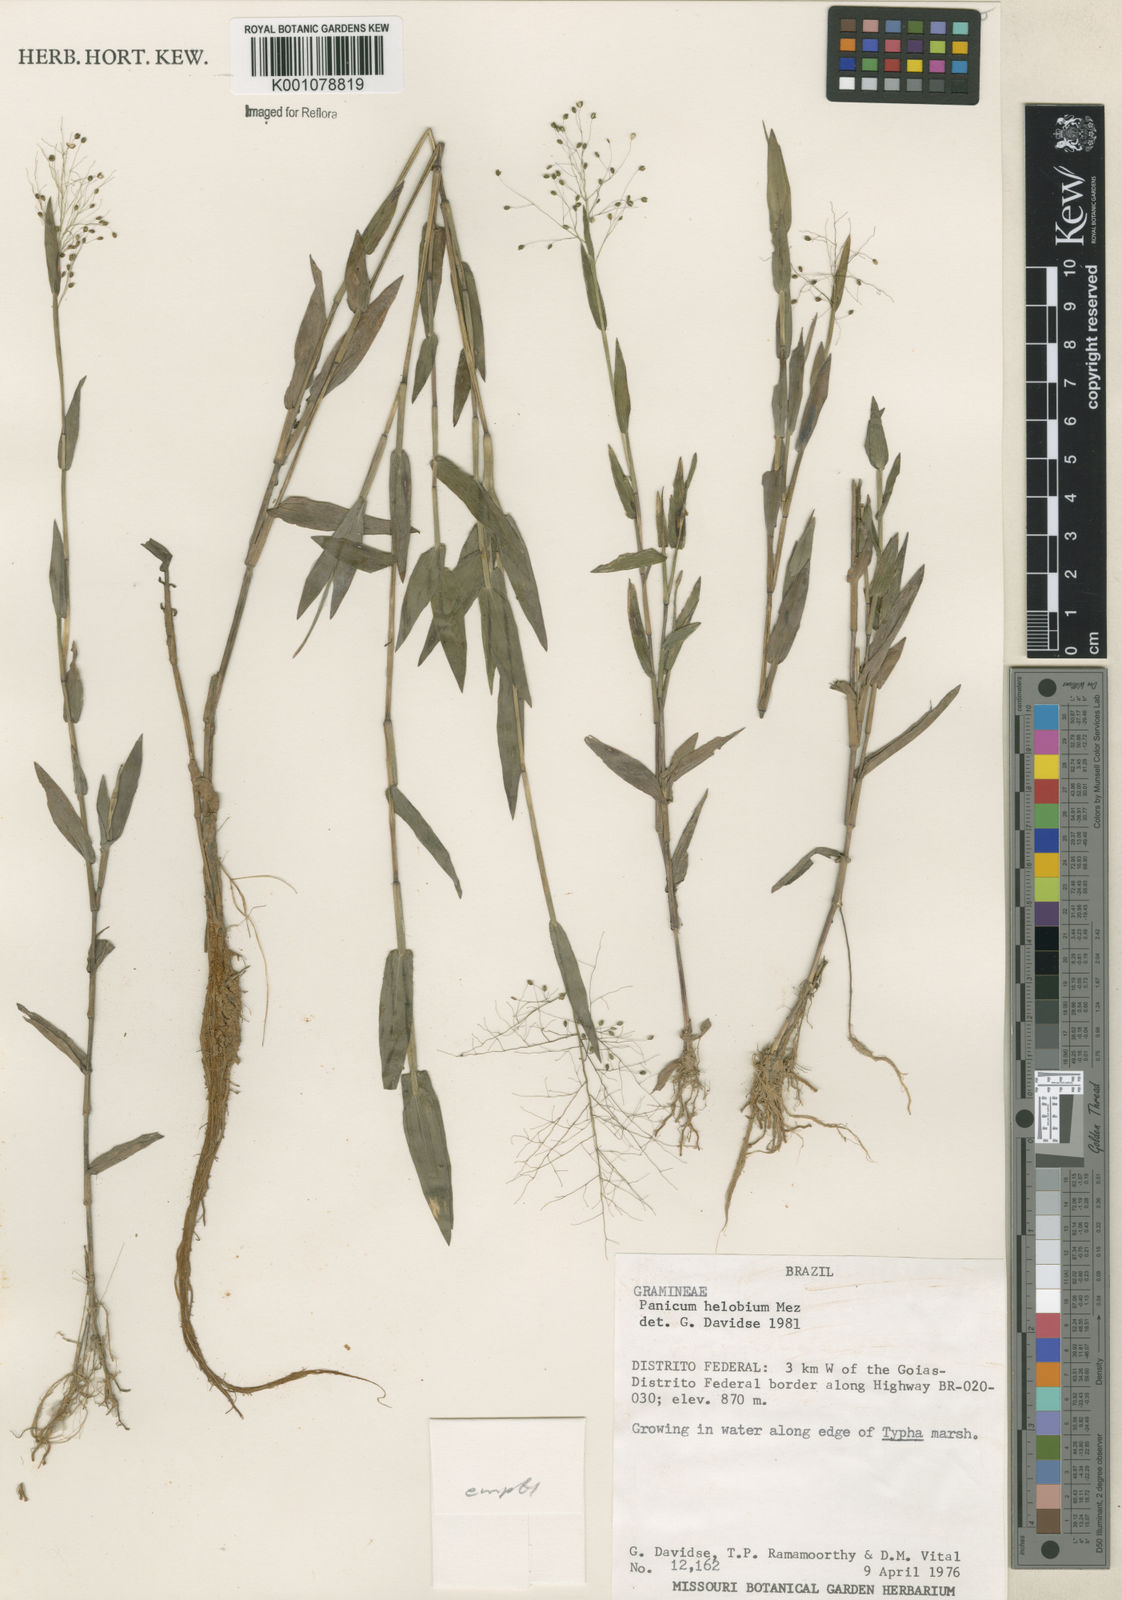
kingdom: Plantae
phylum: Tracheophyta
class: Liliopsida
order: Poales
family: Poaceae
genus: Trichanthecium
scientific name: Trichanthecium schwackeanum
